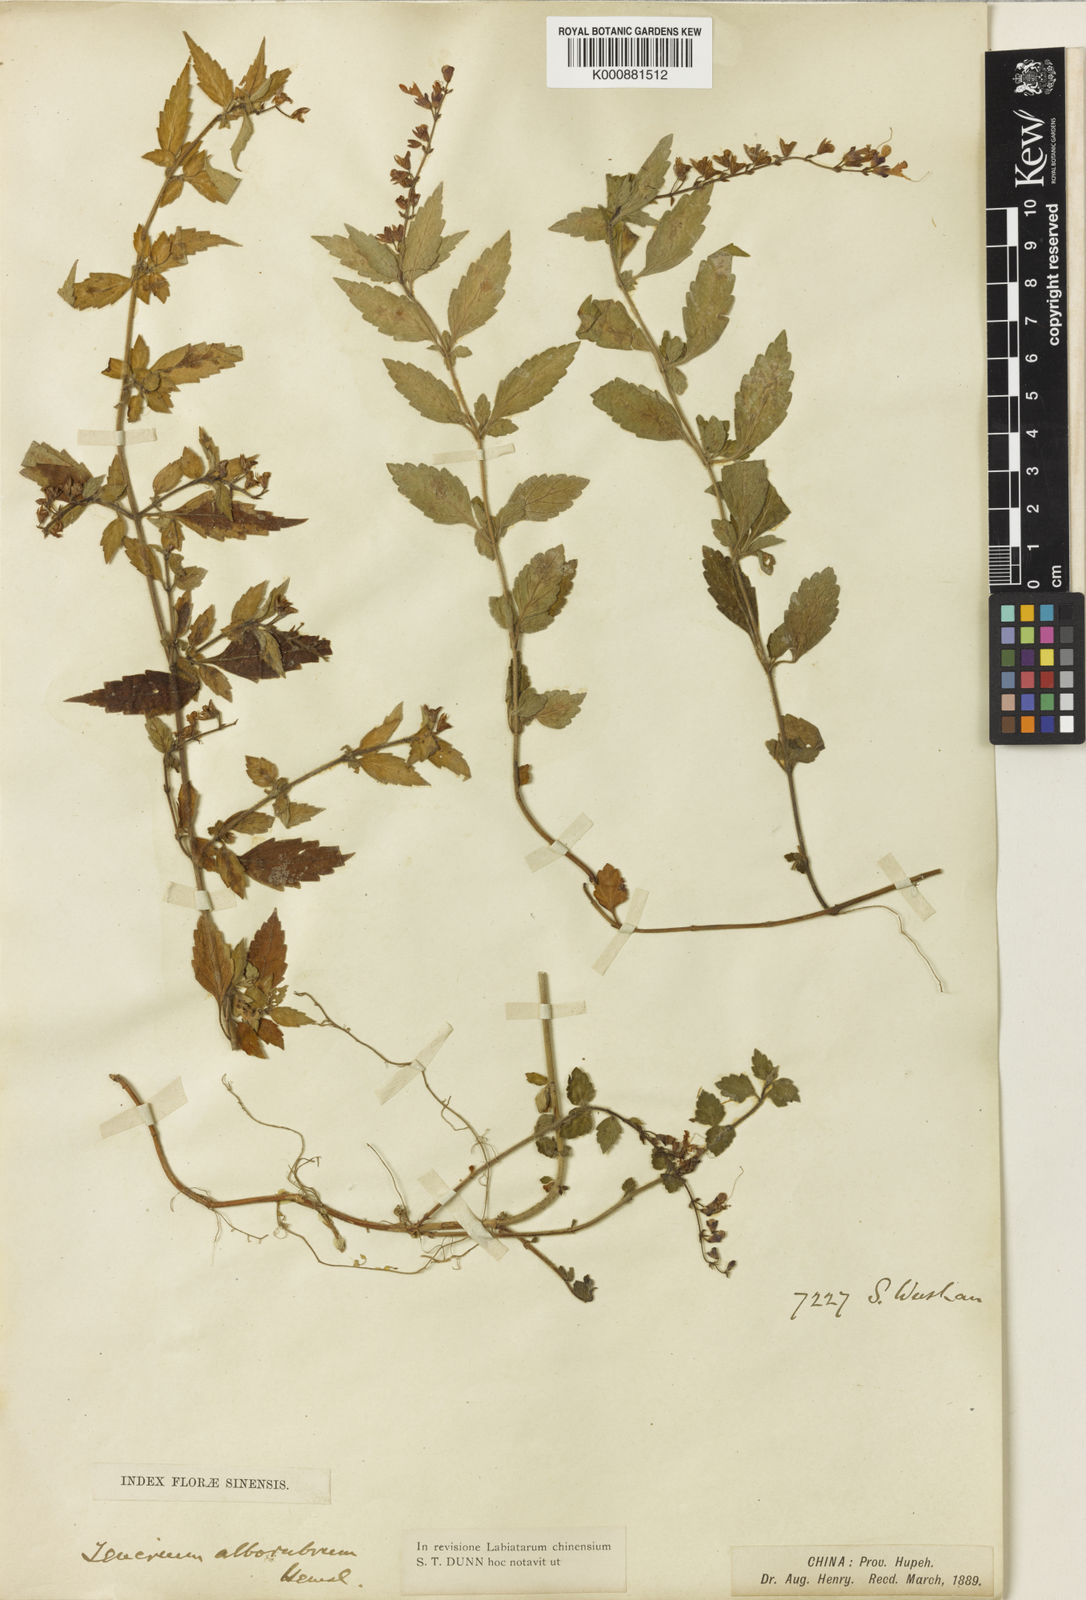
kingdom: Plantae
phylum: Tracheophyta
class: Magnoliopsida
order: Lamiales
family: Lamiaceae
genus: Teucrium
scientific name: Teucrium alborubrum
